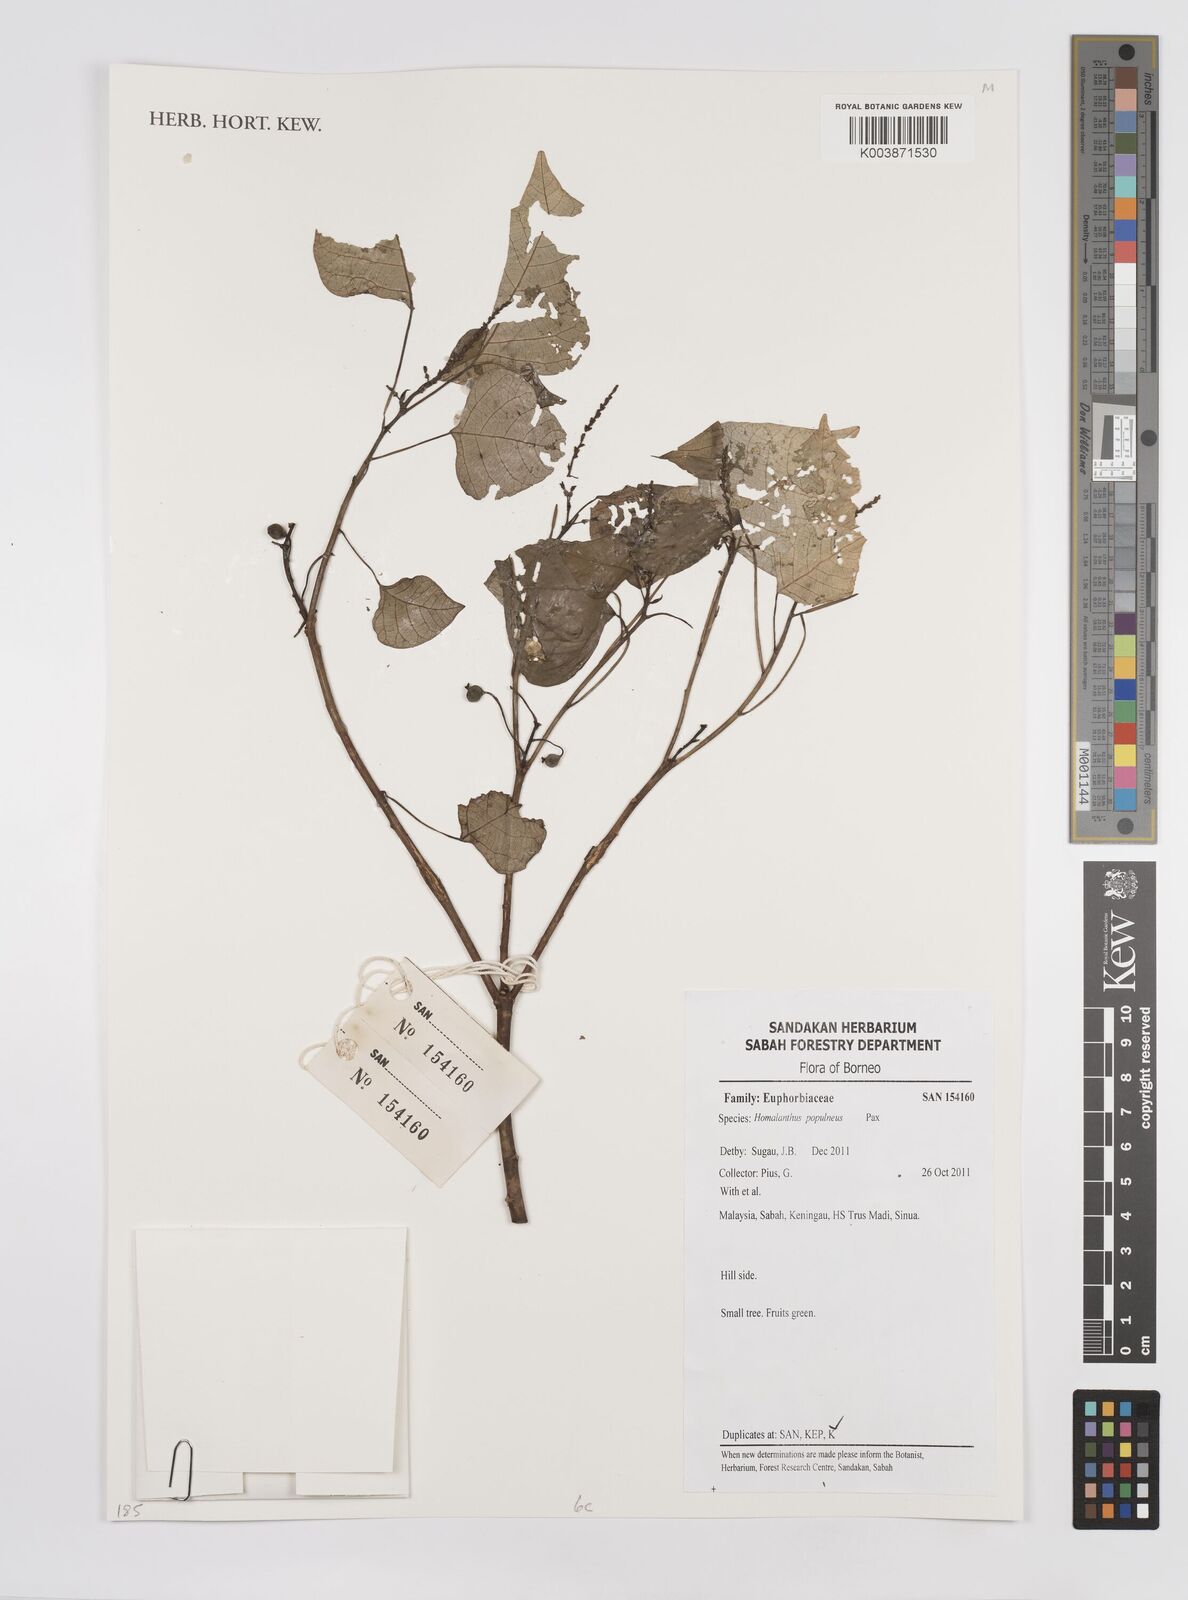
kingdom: Plantae
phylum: Tracheophyta
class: Magnoliopsida
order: Malpighiales
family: Euphorbiaceae
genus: Homalanthus
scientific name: Homalanthus populneus
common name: Spurge
